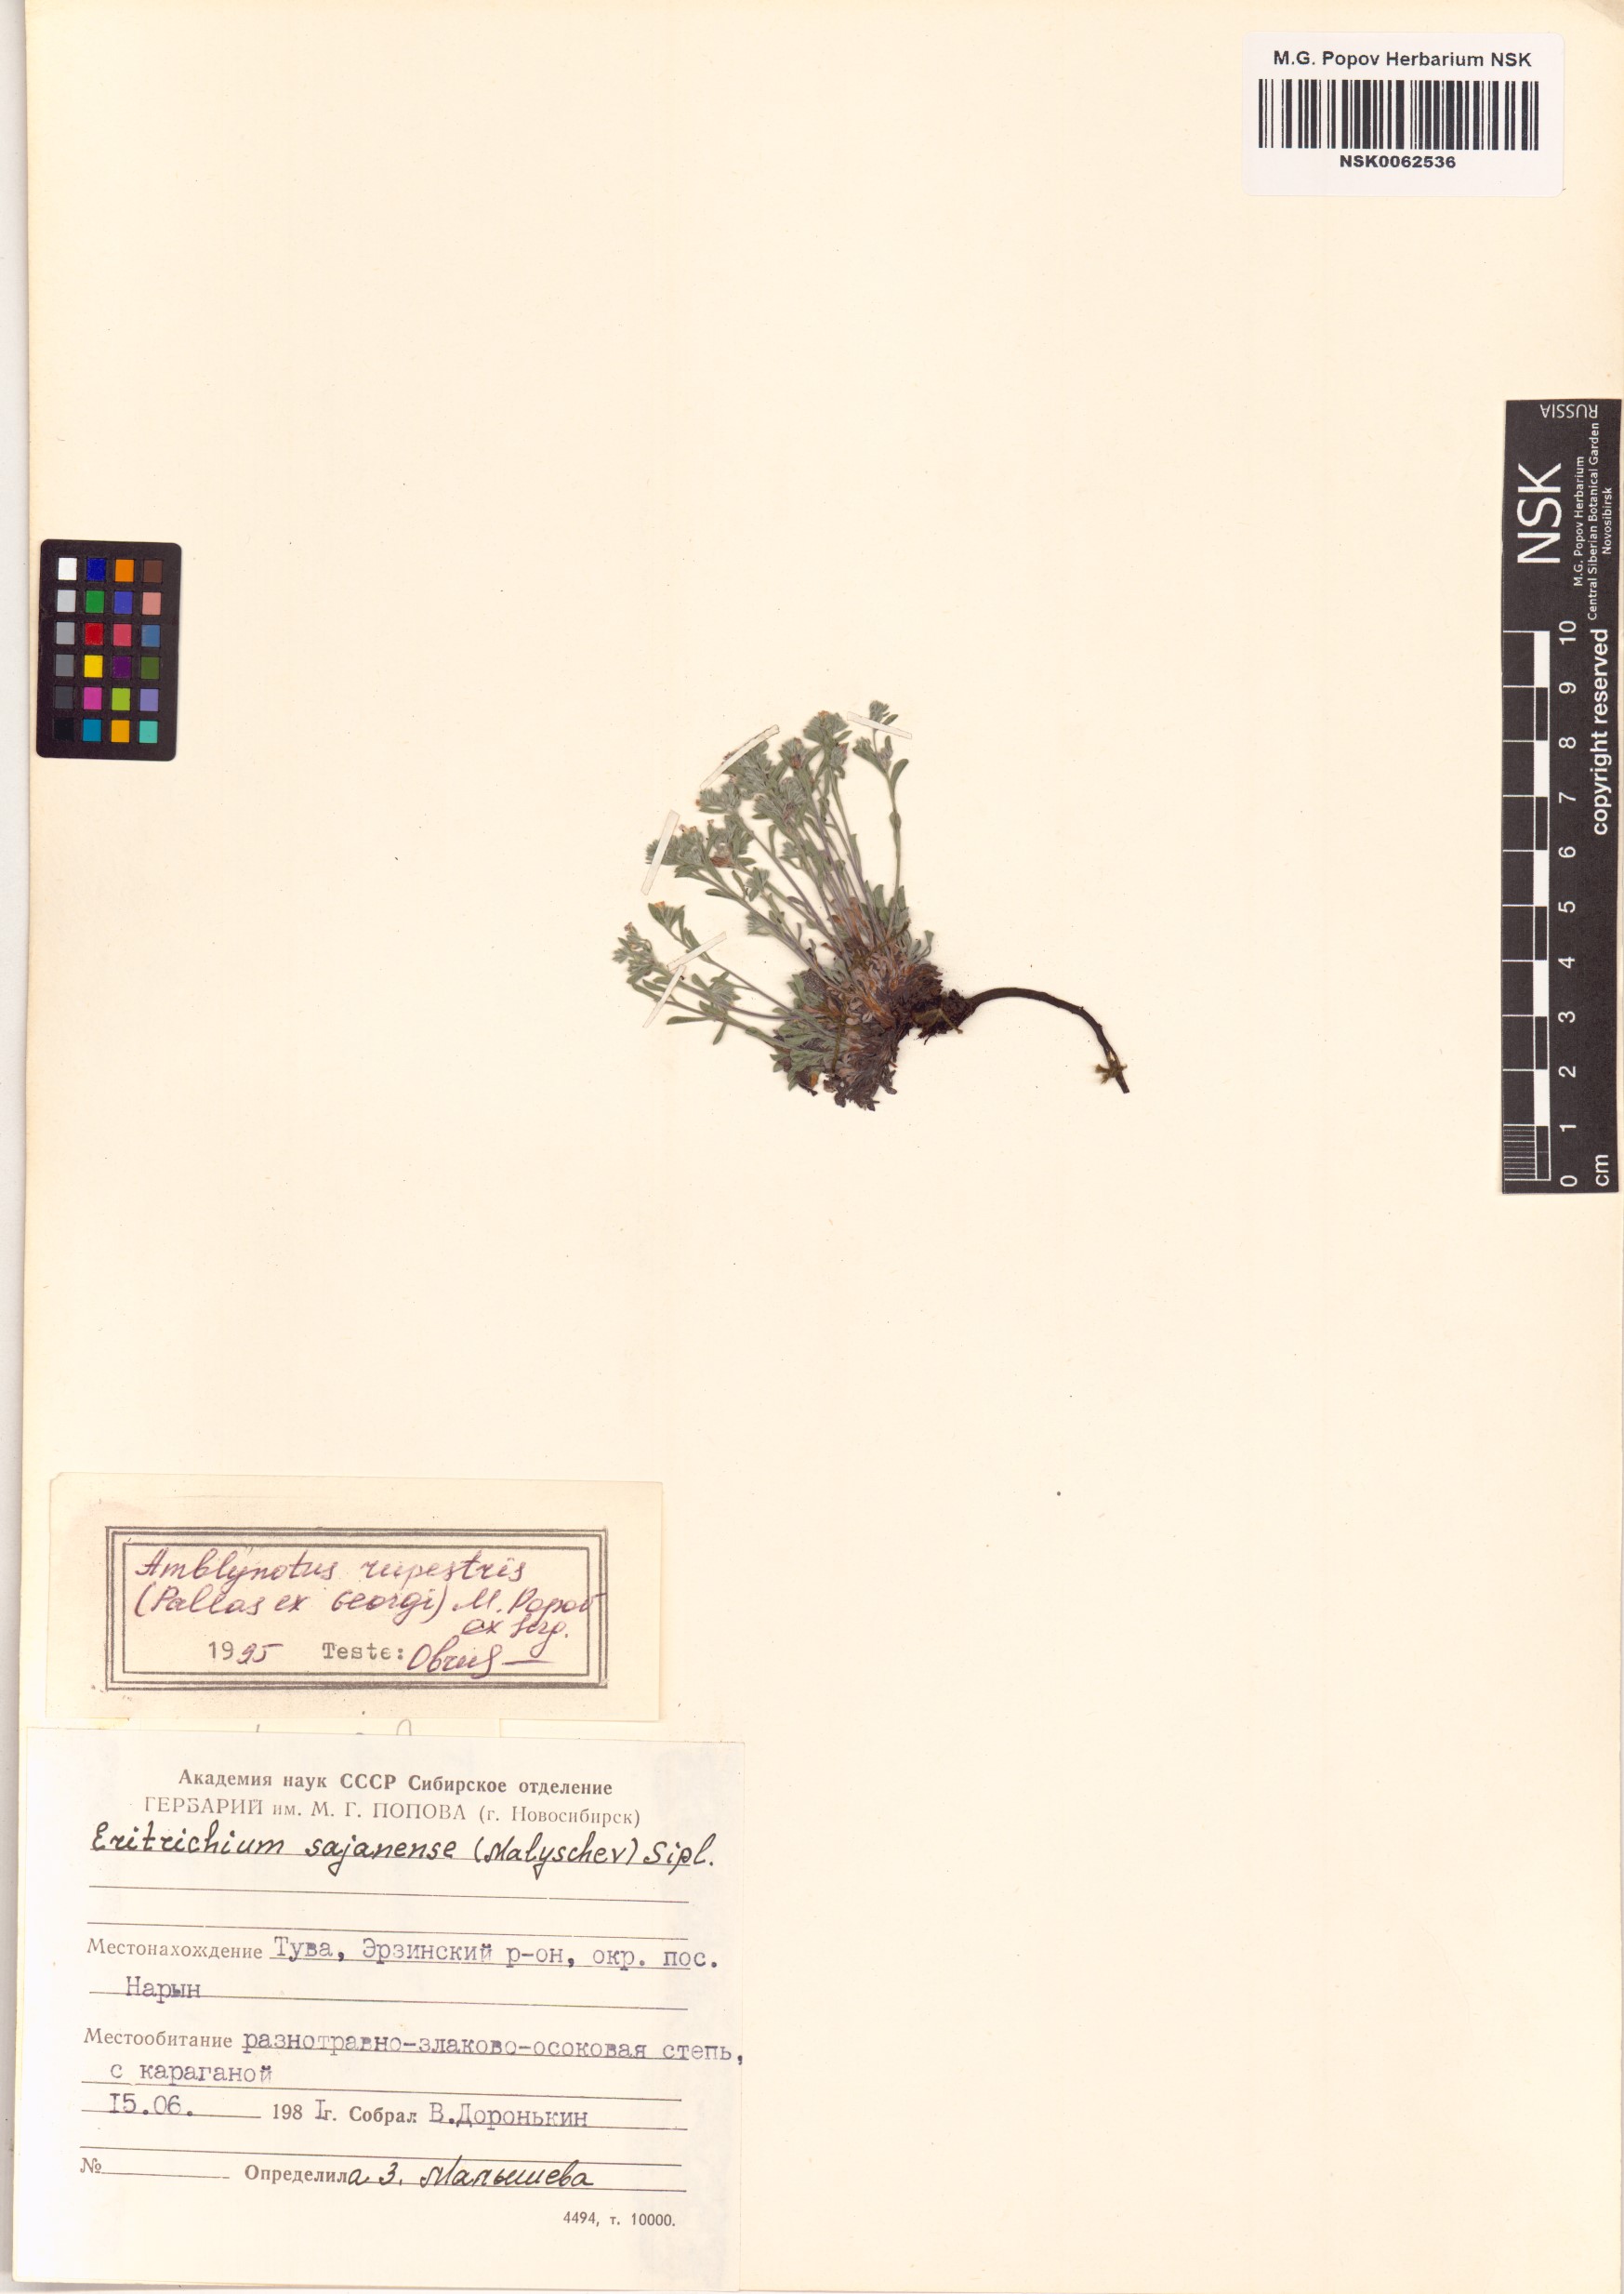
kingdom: Plantae
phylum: Tracheophyta
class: Magnoliopsida
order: Boraginales
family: Boraginaceae
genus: Eritrichium
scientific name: Eritrichium rupestre
